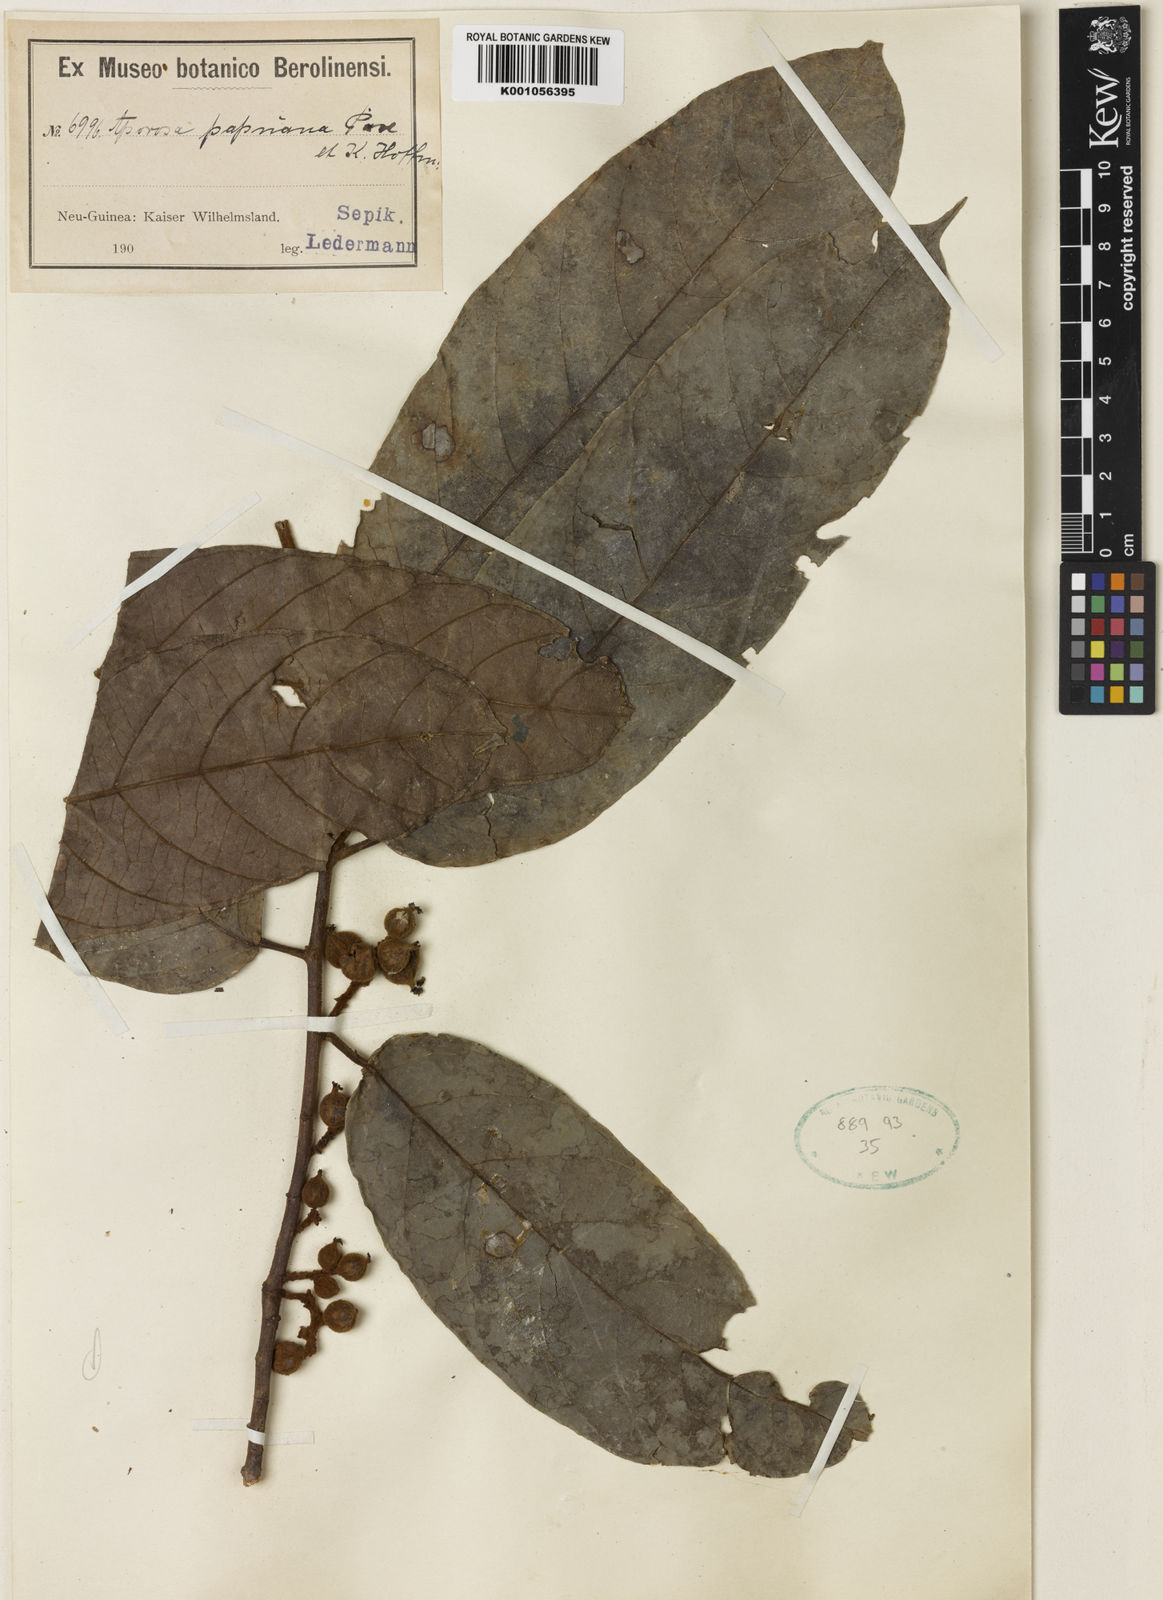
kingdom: Plantae
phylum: Tracheophyta
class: Magnoliopsida
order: Malpighiales
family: Phyllanthaceae
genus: Aporosa
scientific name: Aporosa papuana
